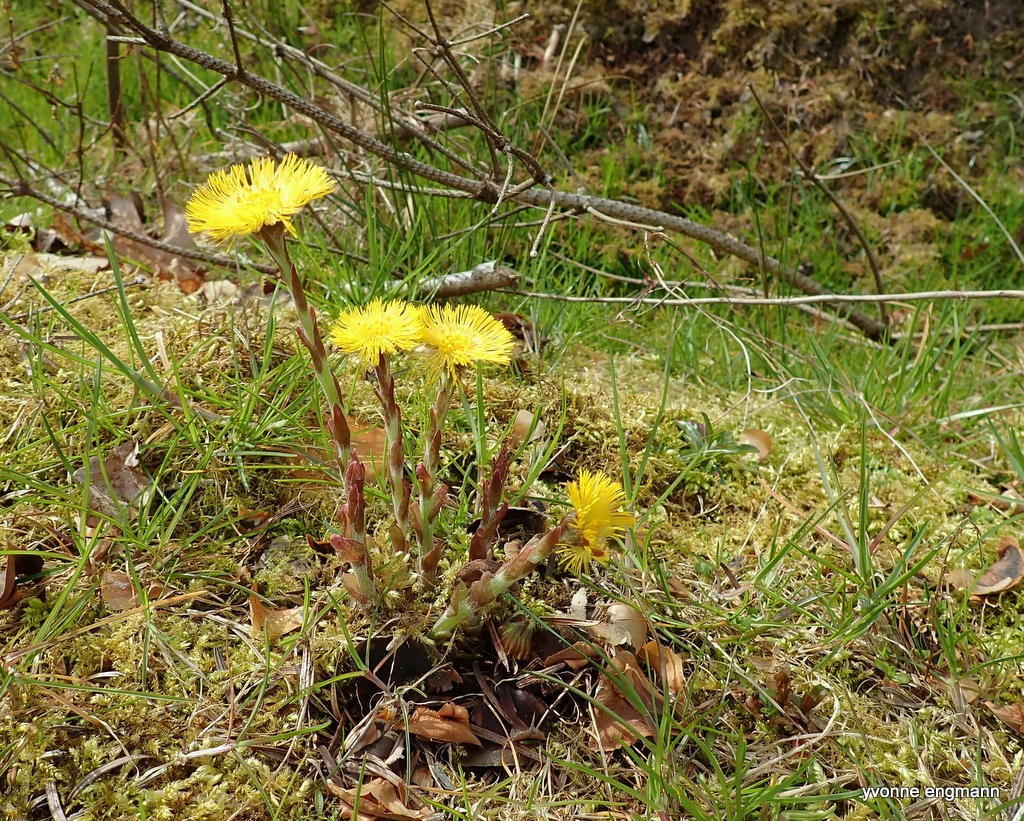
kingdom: Plantae
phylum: Tracheophyta
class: Magnoliopsida
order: Asterales
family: Asteraceae
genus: Tussilago
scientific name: Tussilago farfara
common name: Følfod
